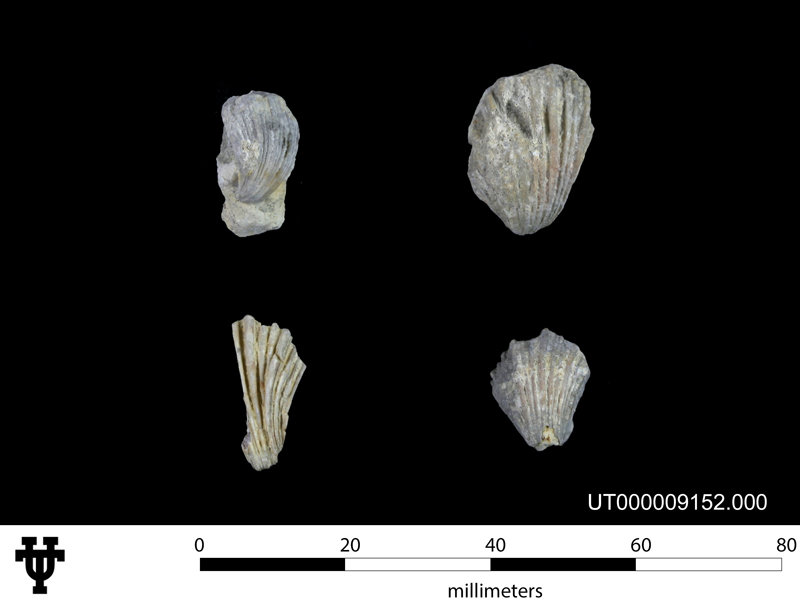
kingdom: Animalia
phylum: Mollusca
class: Bivalvia
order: Pectinida
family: Neitheidae
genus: Neithea
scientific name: Neithea irregularis
